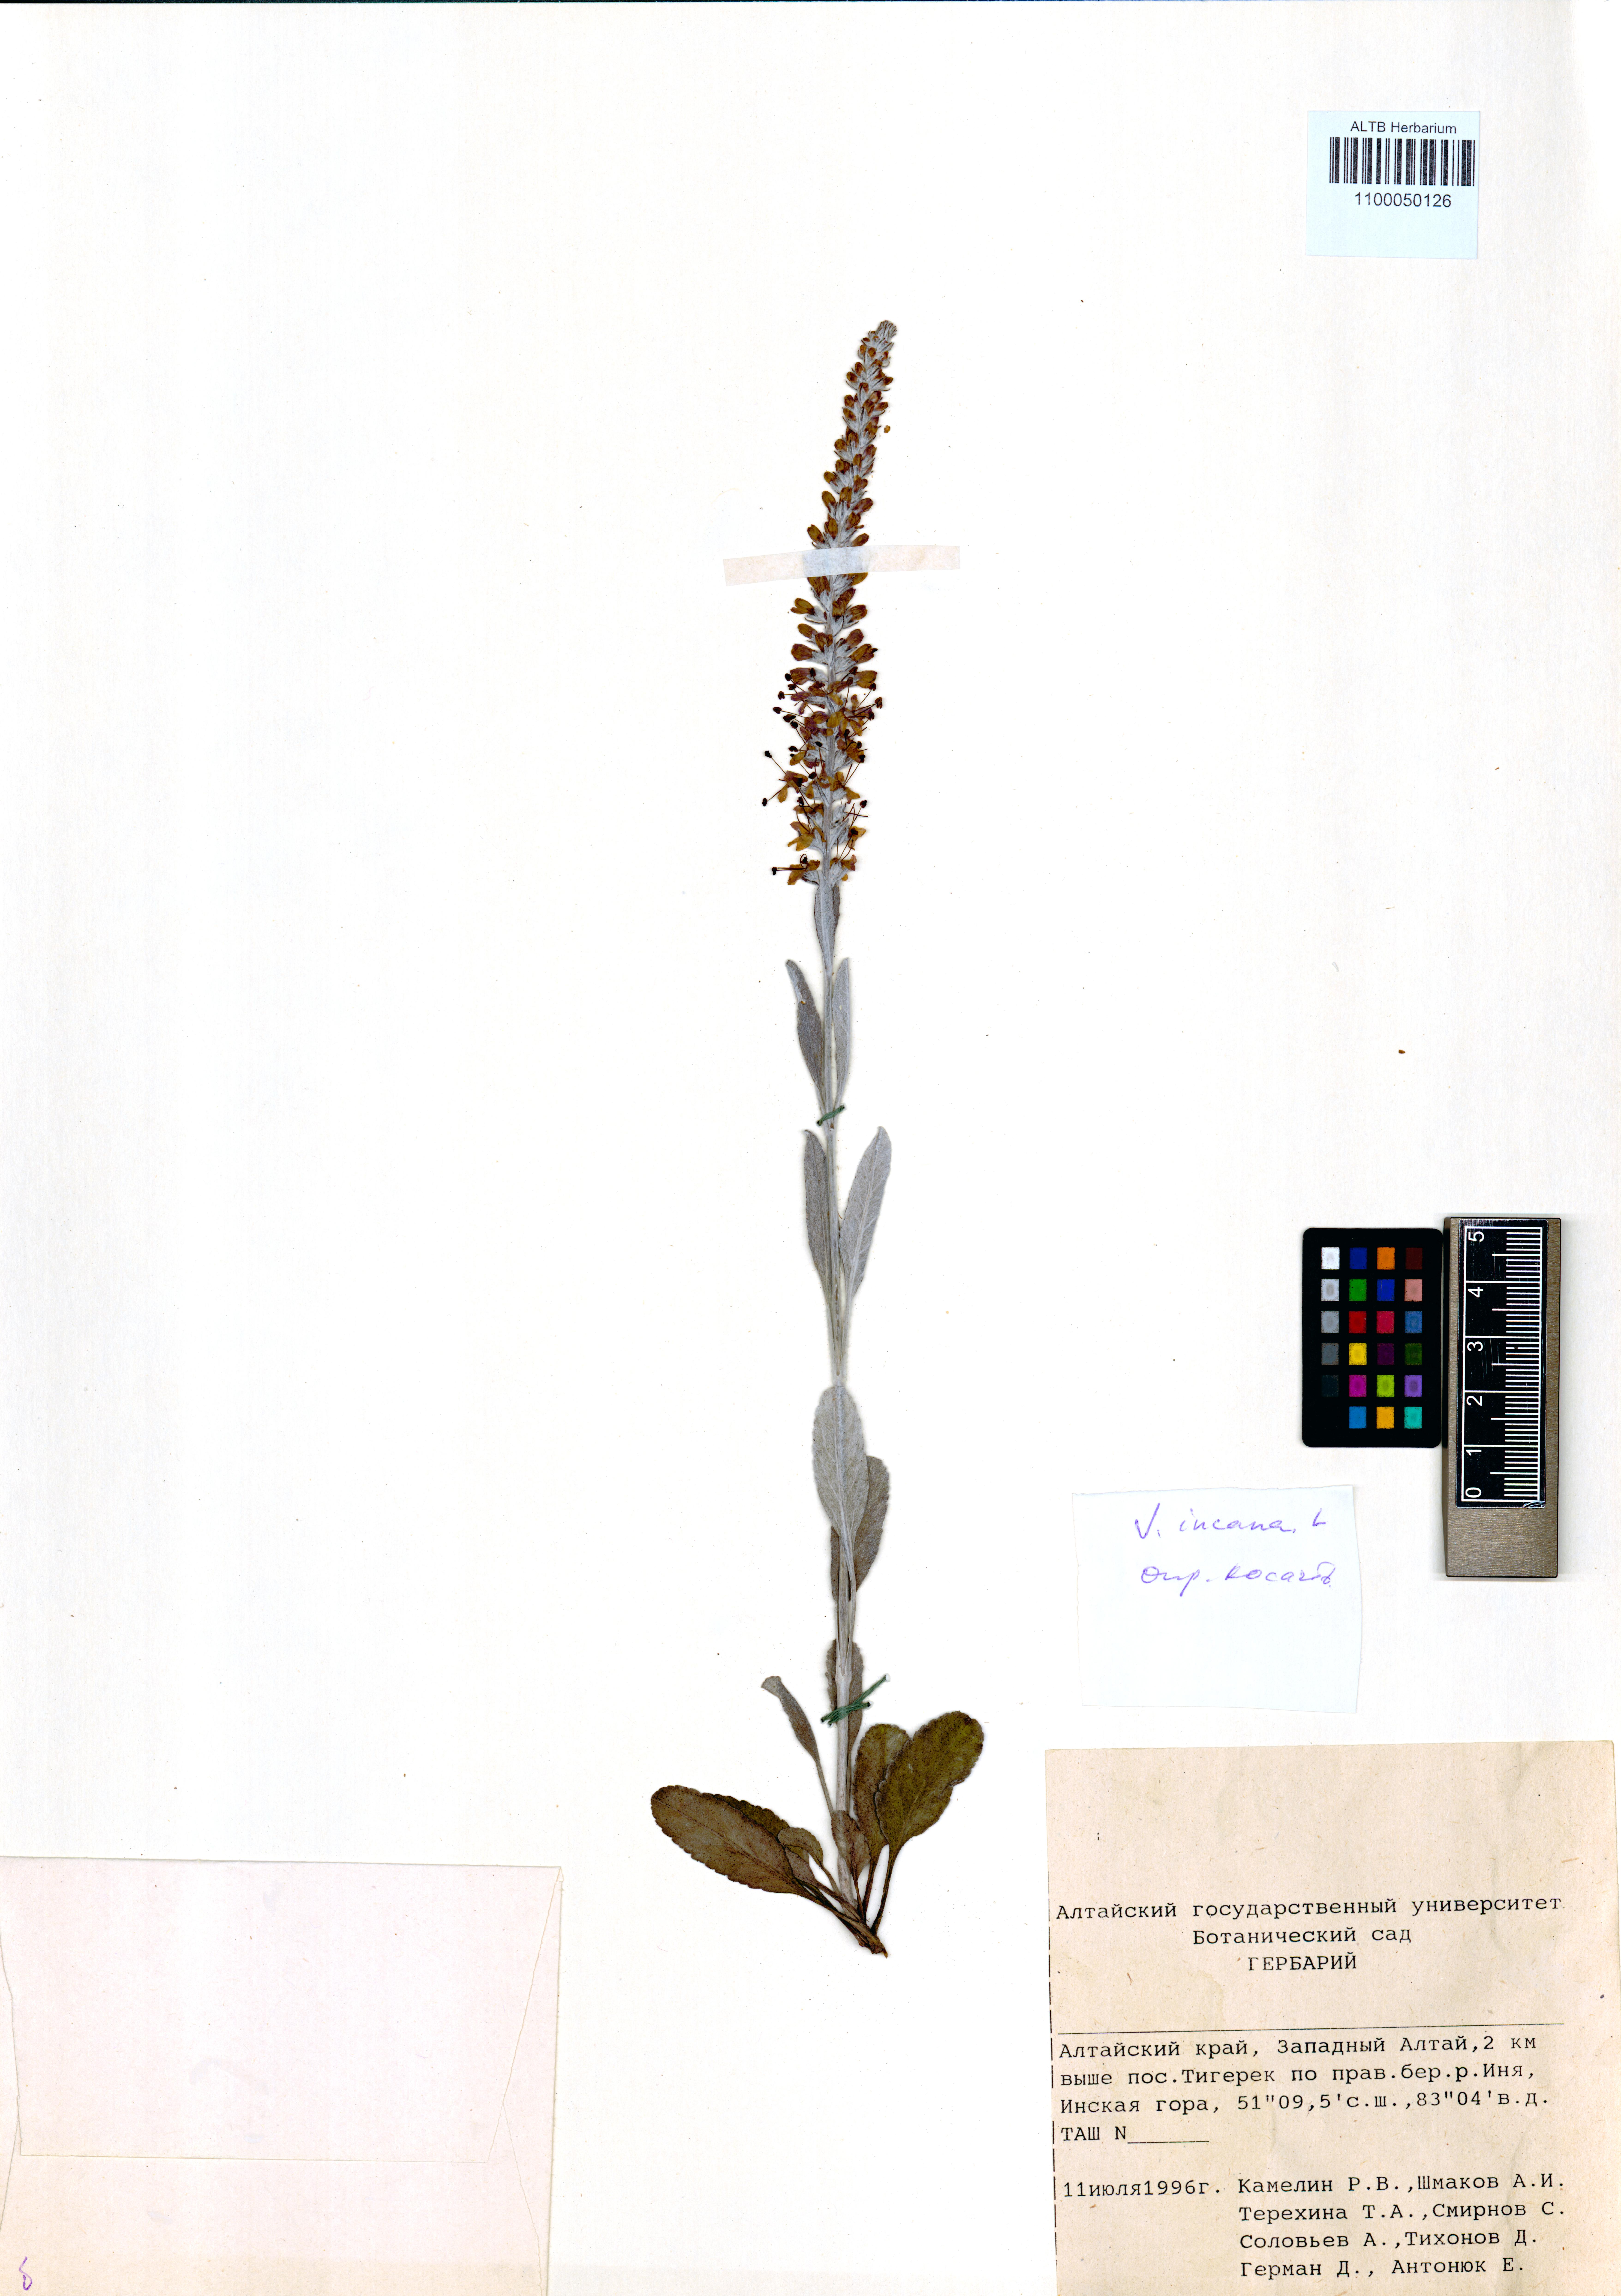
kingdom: Plantae
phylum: Tracheophyta
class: Magnoliopsida
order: Lamiales
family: Plantaginaceae
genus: Veronica
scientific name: Veronica incana
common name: Silver speedwell
